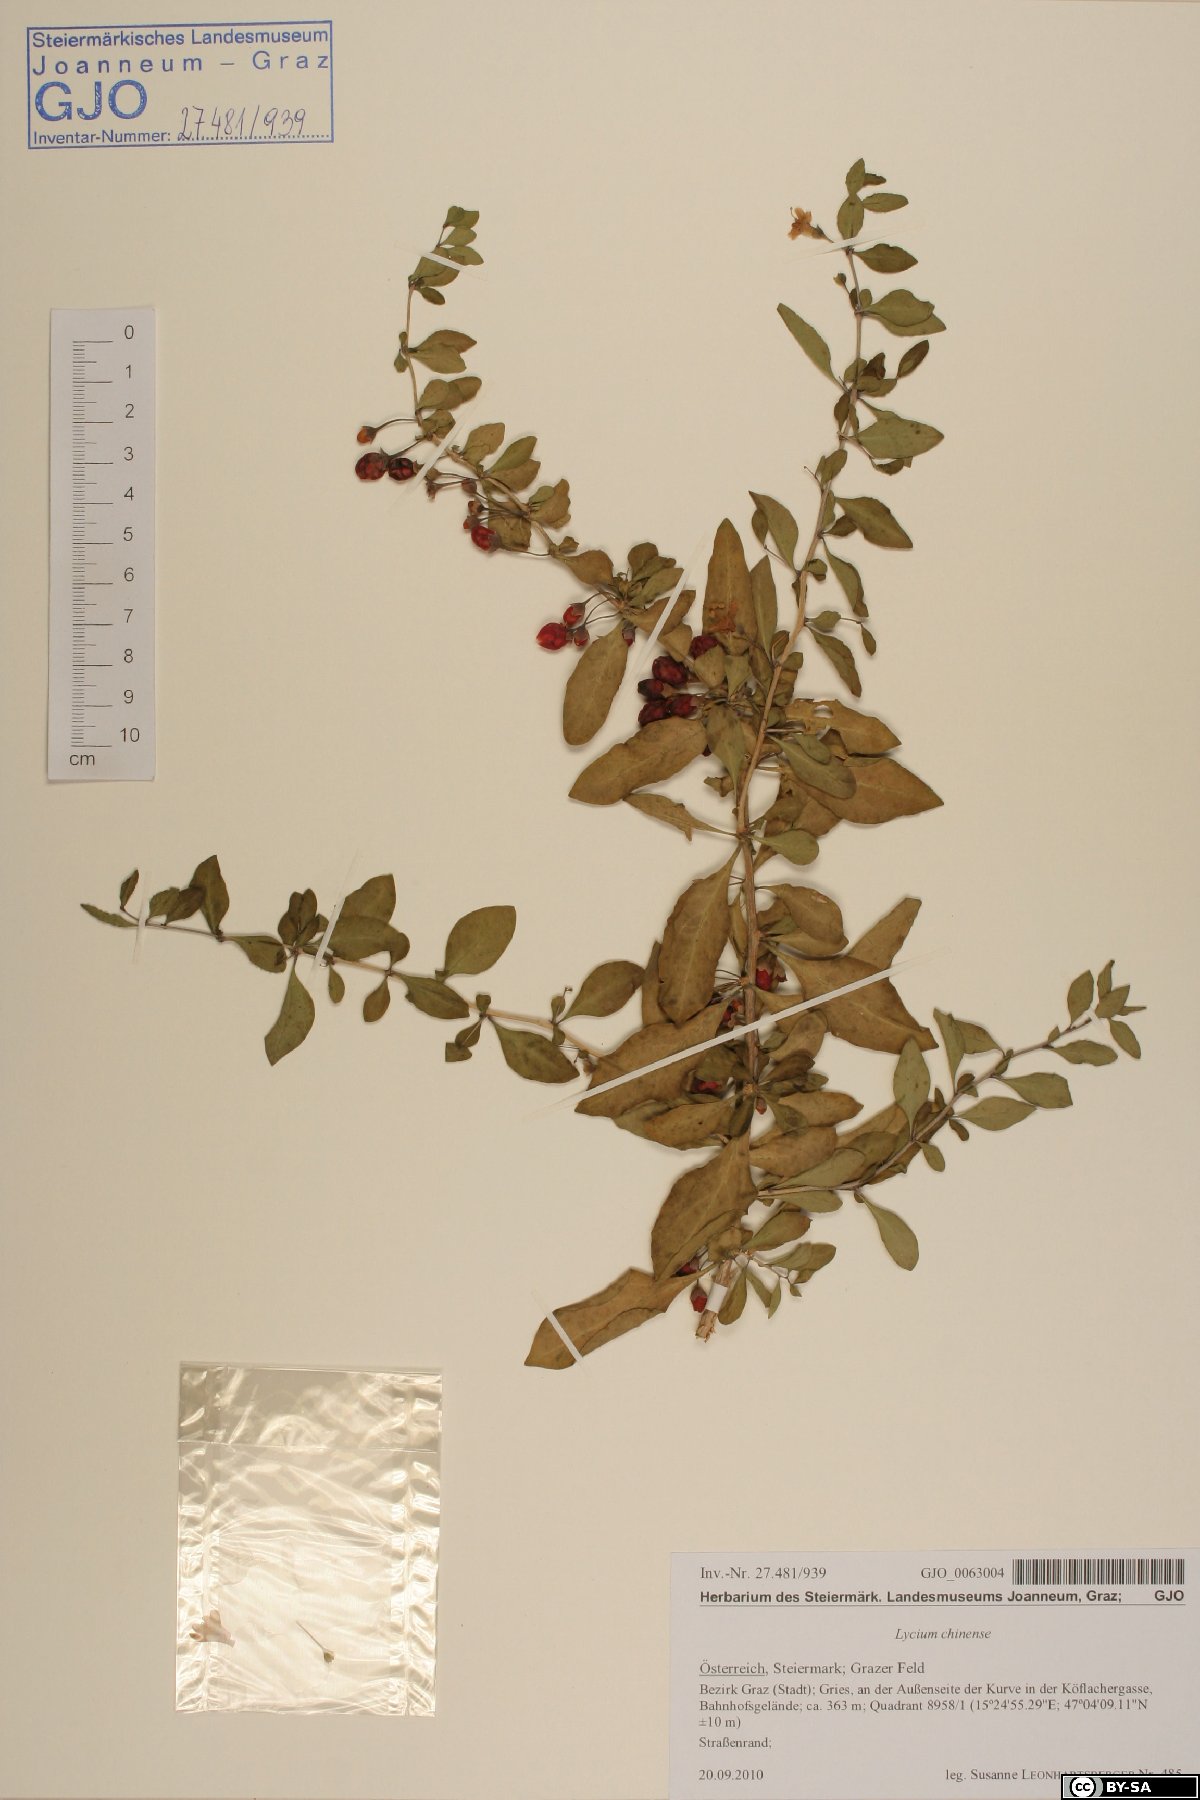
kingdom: Plantae
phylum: Tracheophyta
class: Magnoliopsida
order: Solanales
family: Solanaceae
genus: Lycium
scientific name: Lycium chinense
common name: Chinese teaplant
